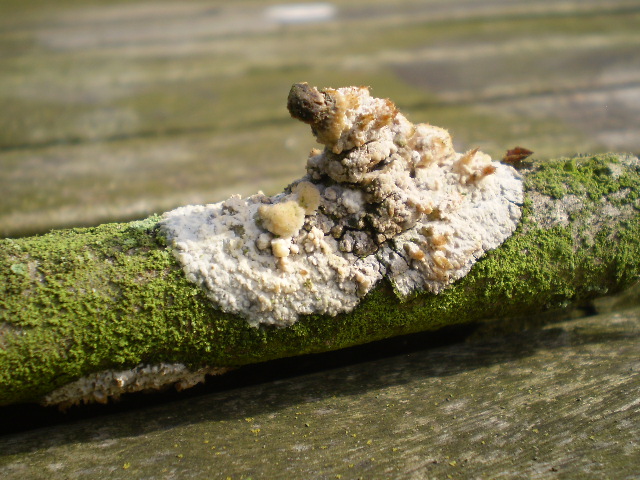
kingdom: Fungi
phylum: Basidiomycota
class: Agaricomycetes
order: Polyporales
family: Hyphodermataceae
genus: Hyphoderma
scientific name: Hyphoderma setigerum
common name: håret kalkskind
